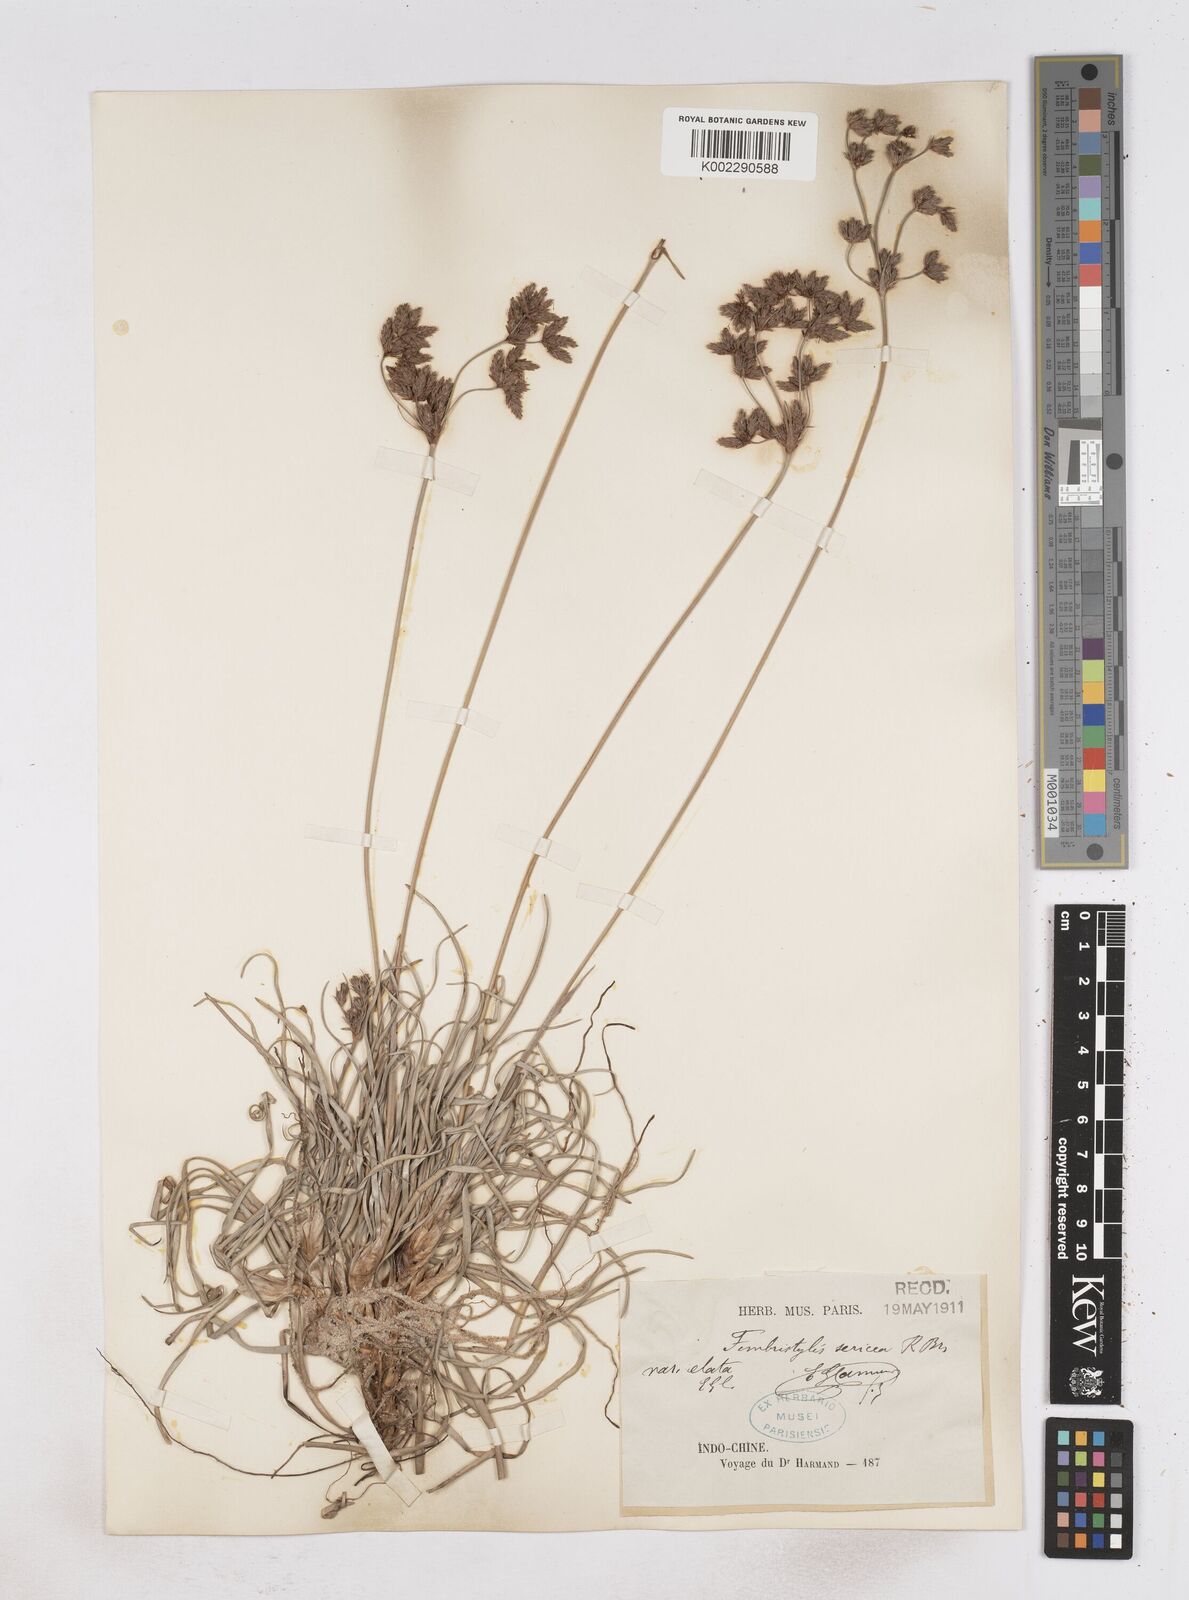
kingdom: Plantae
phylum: Tracheophyta
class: Liliopsida
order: Poales
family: Cyperaceae
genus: Fimbristylis
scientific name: Fimbristylis sericea
